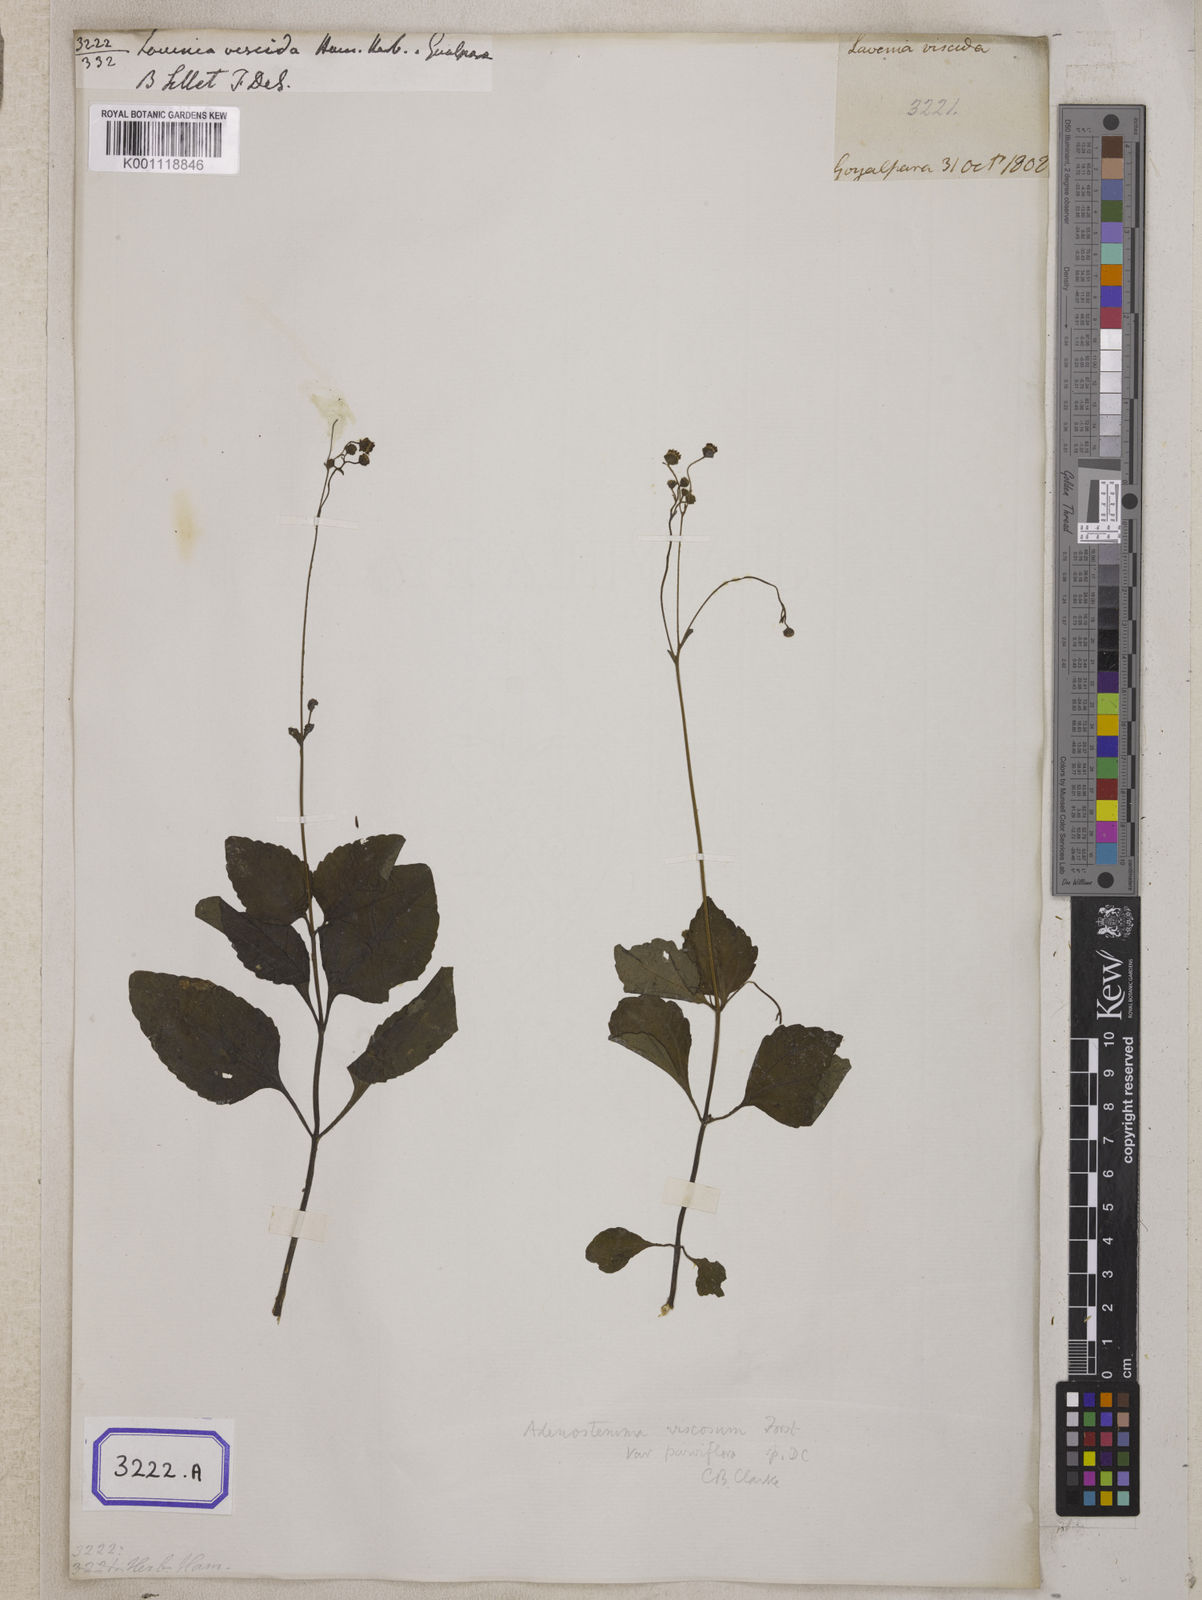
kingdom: Plantae
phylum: Tracheophyta
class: Magnoliopsida
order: Asterales
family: Asteraceae
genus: Adenostemma
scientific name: Adenostemma viscosum
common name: Dungweed
